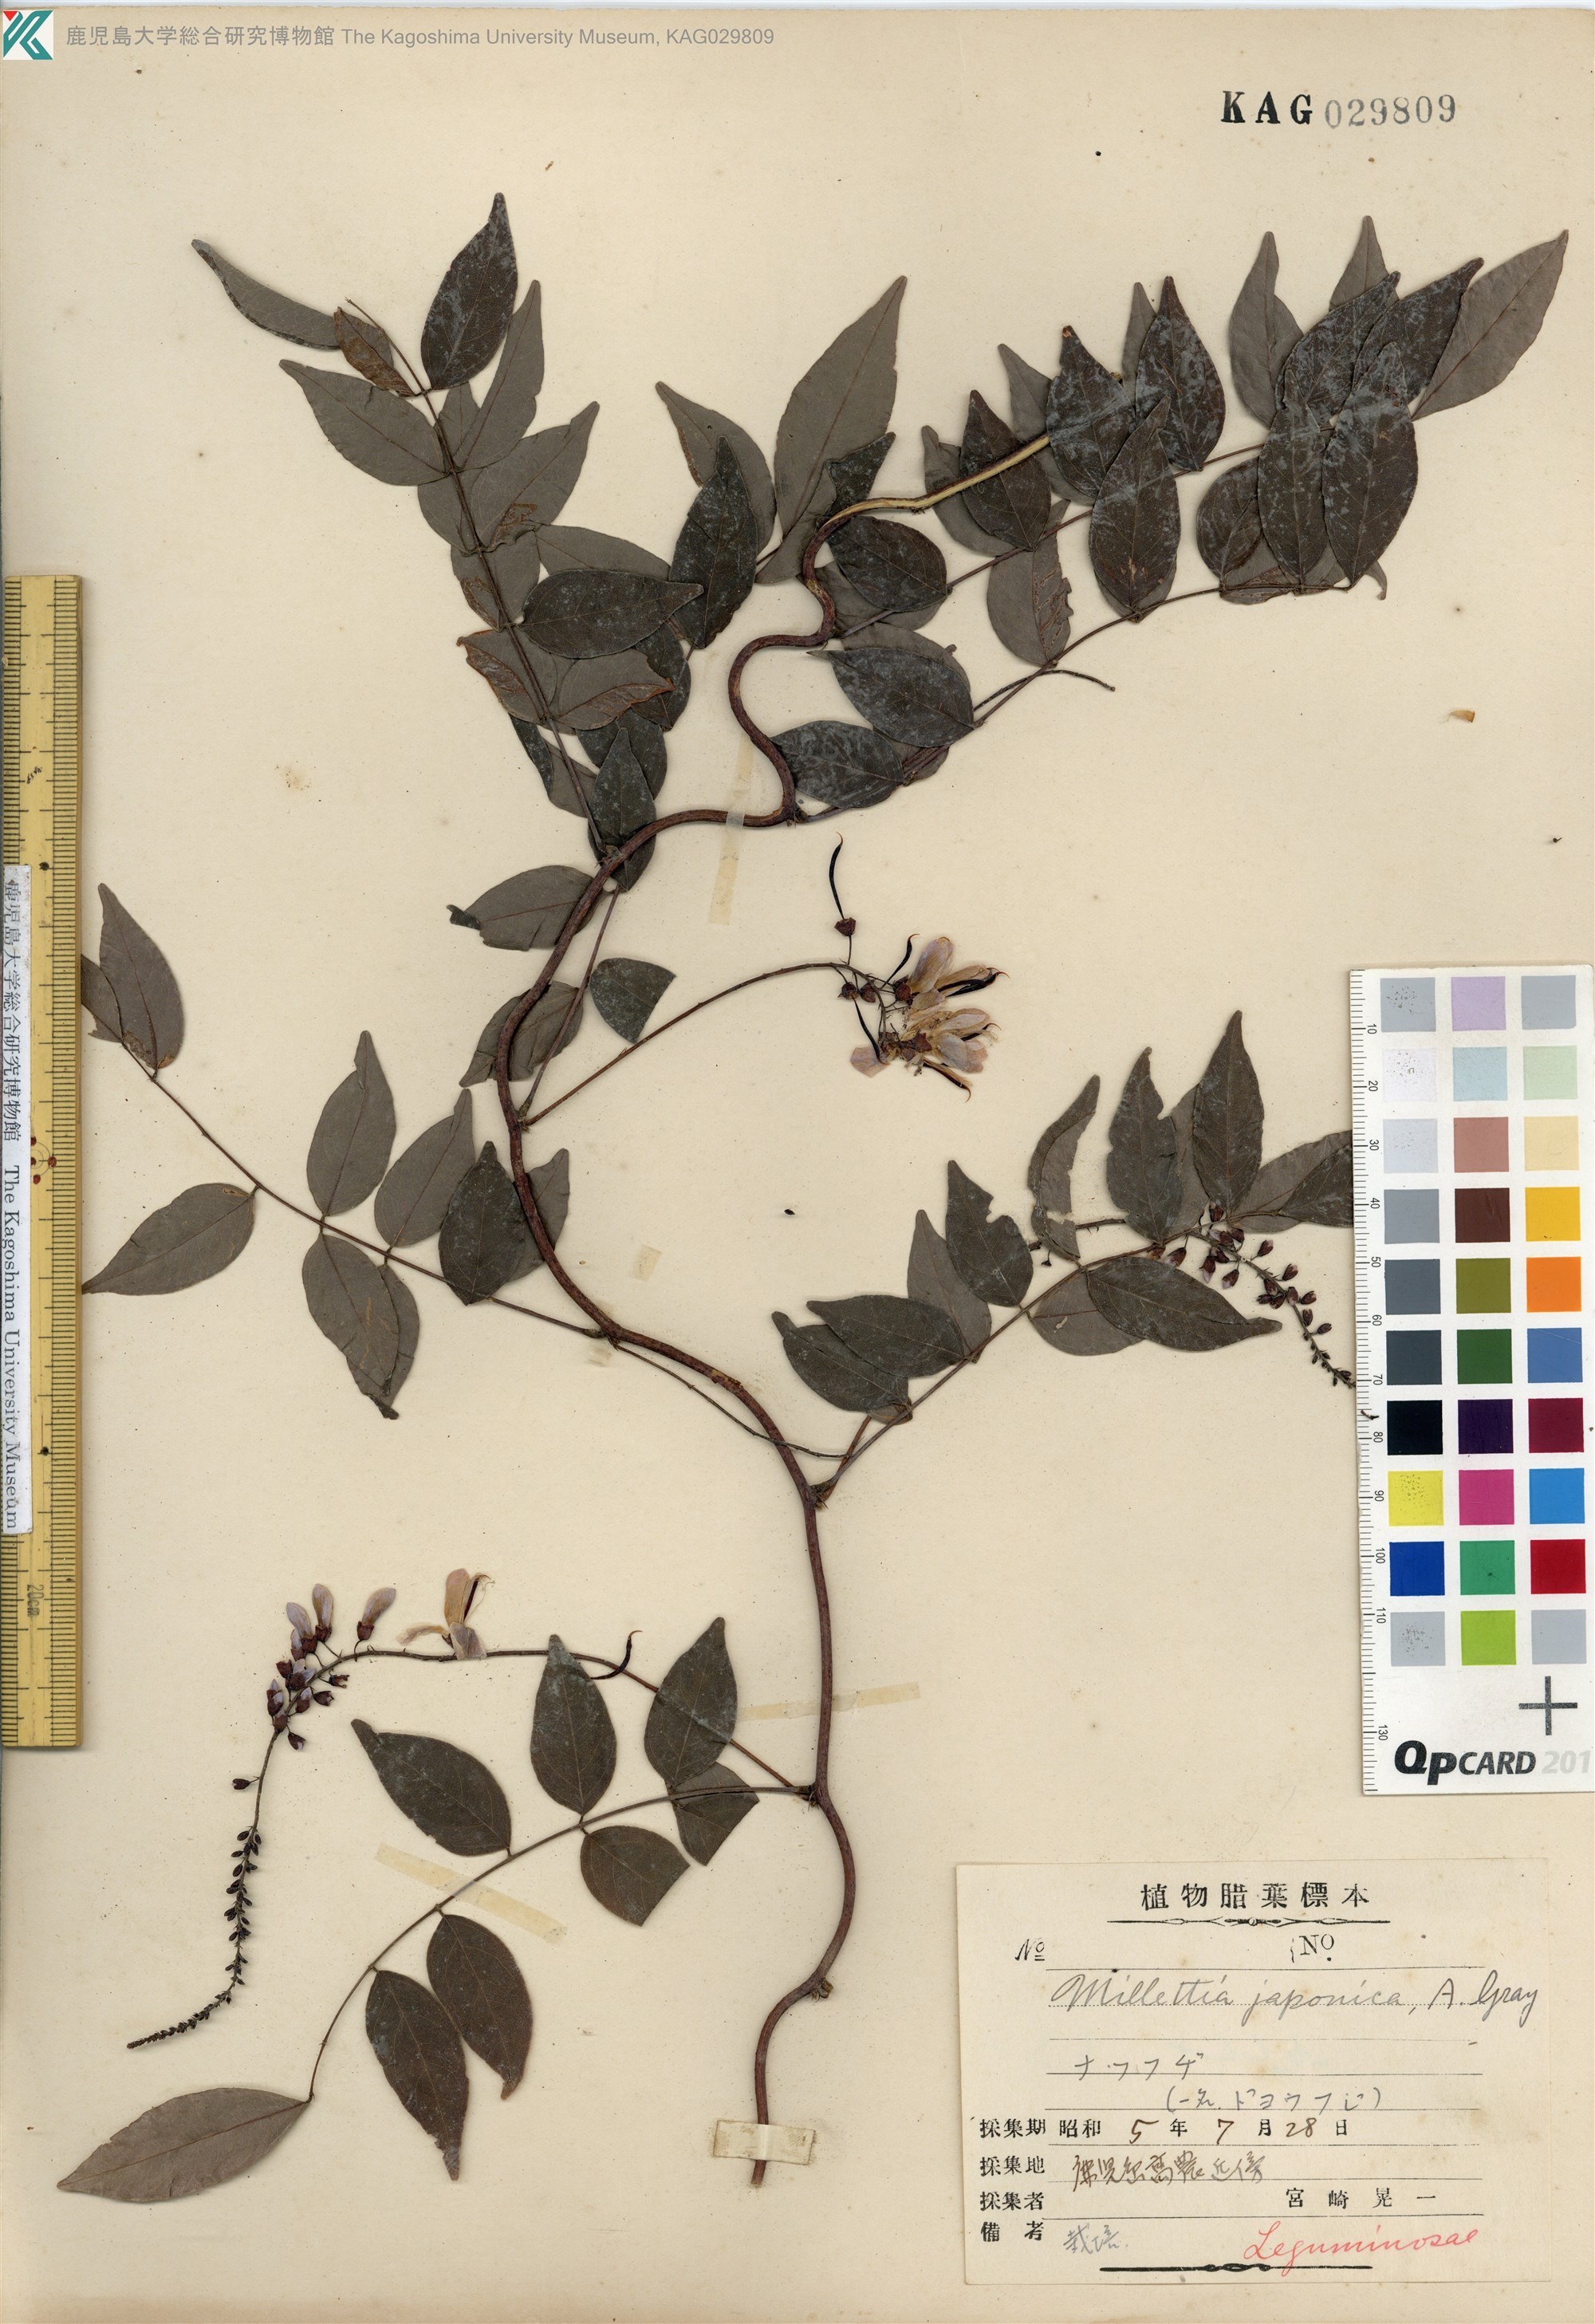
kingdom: Plantae
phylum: Tracheophyta
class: Magnoliopsida
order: Fabales
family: Fabaceae
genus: Wisteriopsis
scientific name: Wisteriopsis japonica
